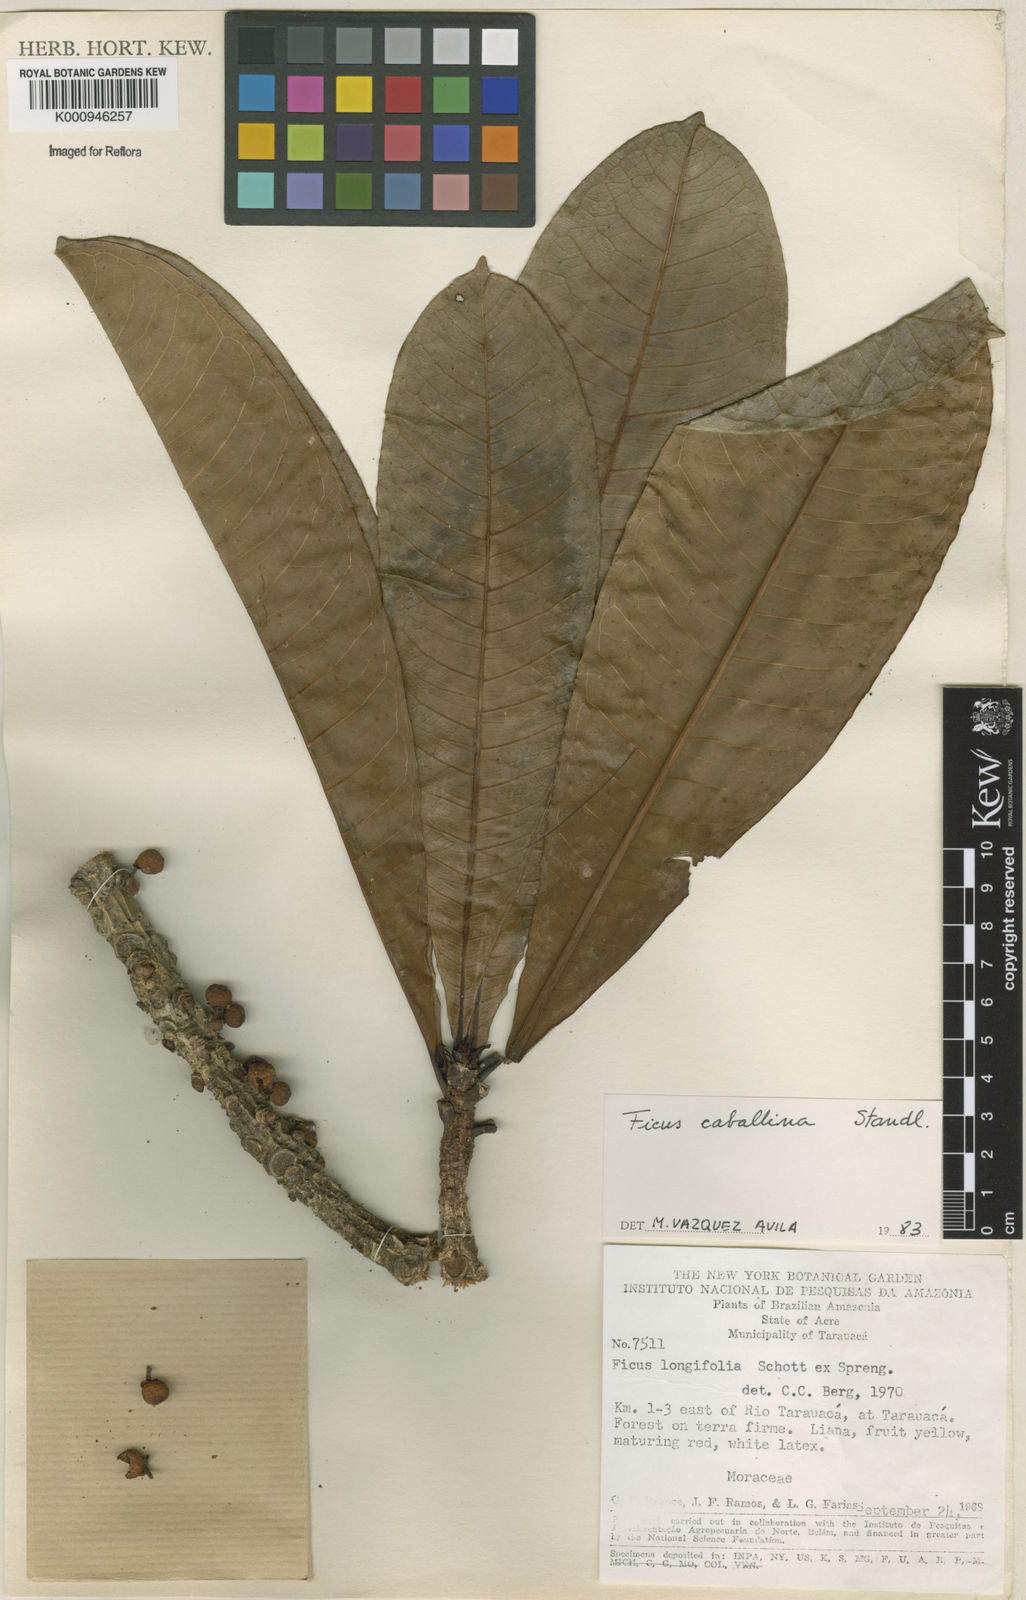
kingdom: Plantae
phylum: Tracheophyta
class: Magnoliopsida
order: Rosales
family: Moraceae
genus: Ficus
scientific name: Ficus caballina
